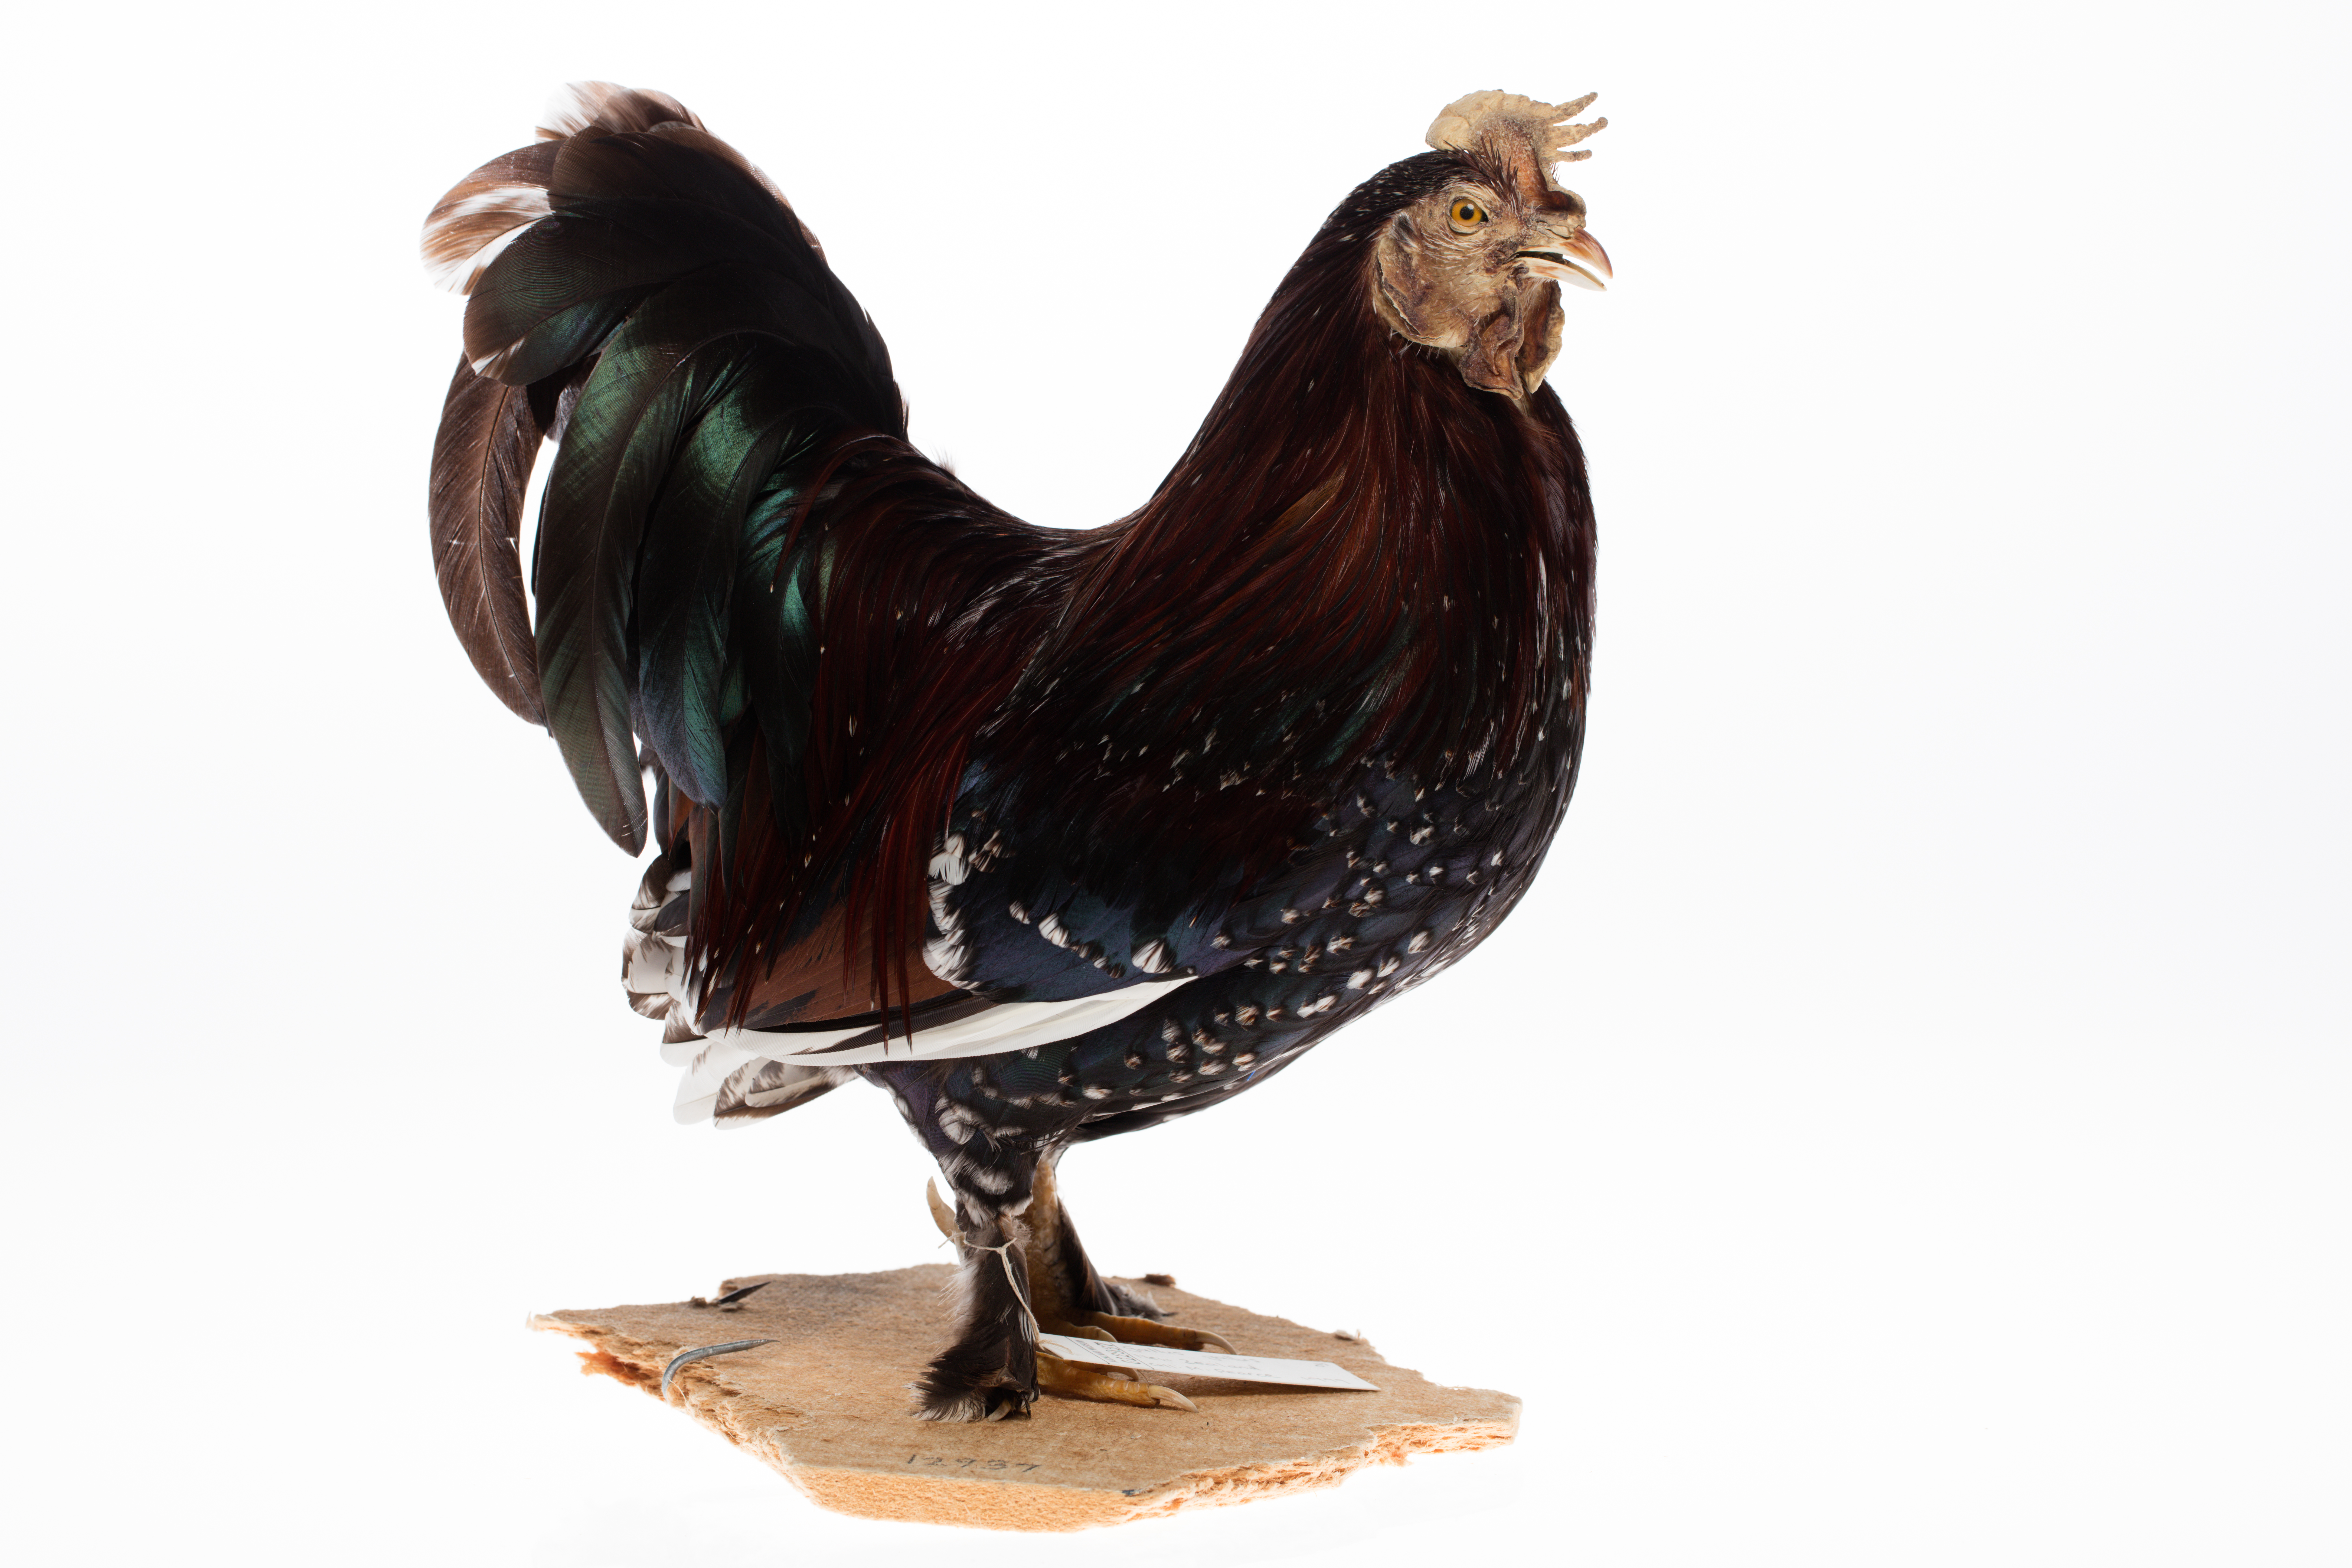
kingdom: Animalia
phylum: Chordata
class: Aves
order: Galliformes
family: Phasianidae
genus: Gallus
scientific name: Gallus gallus
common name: Red junglefowl
